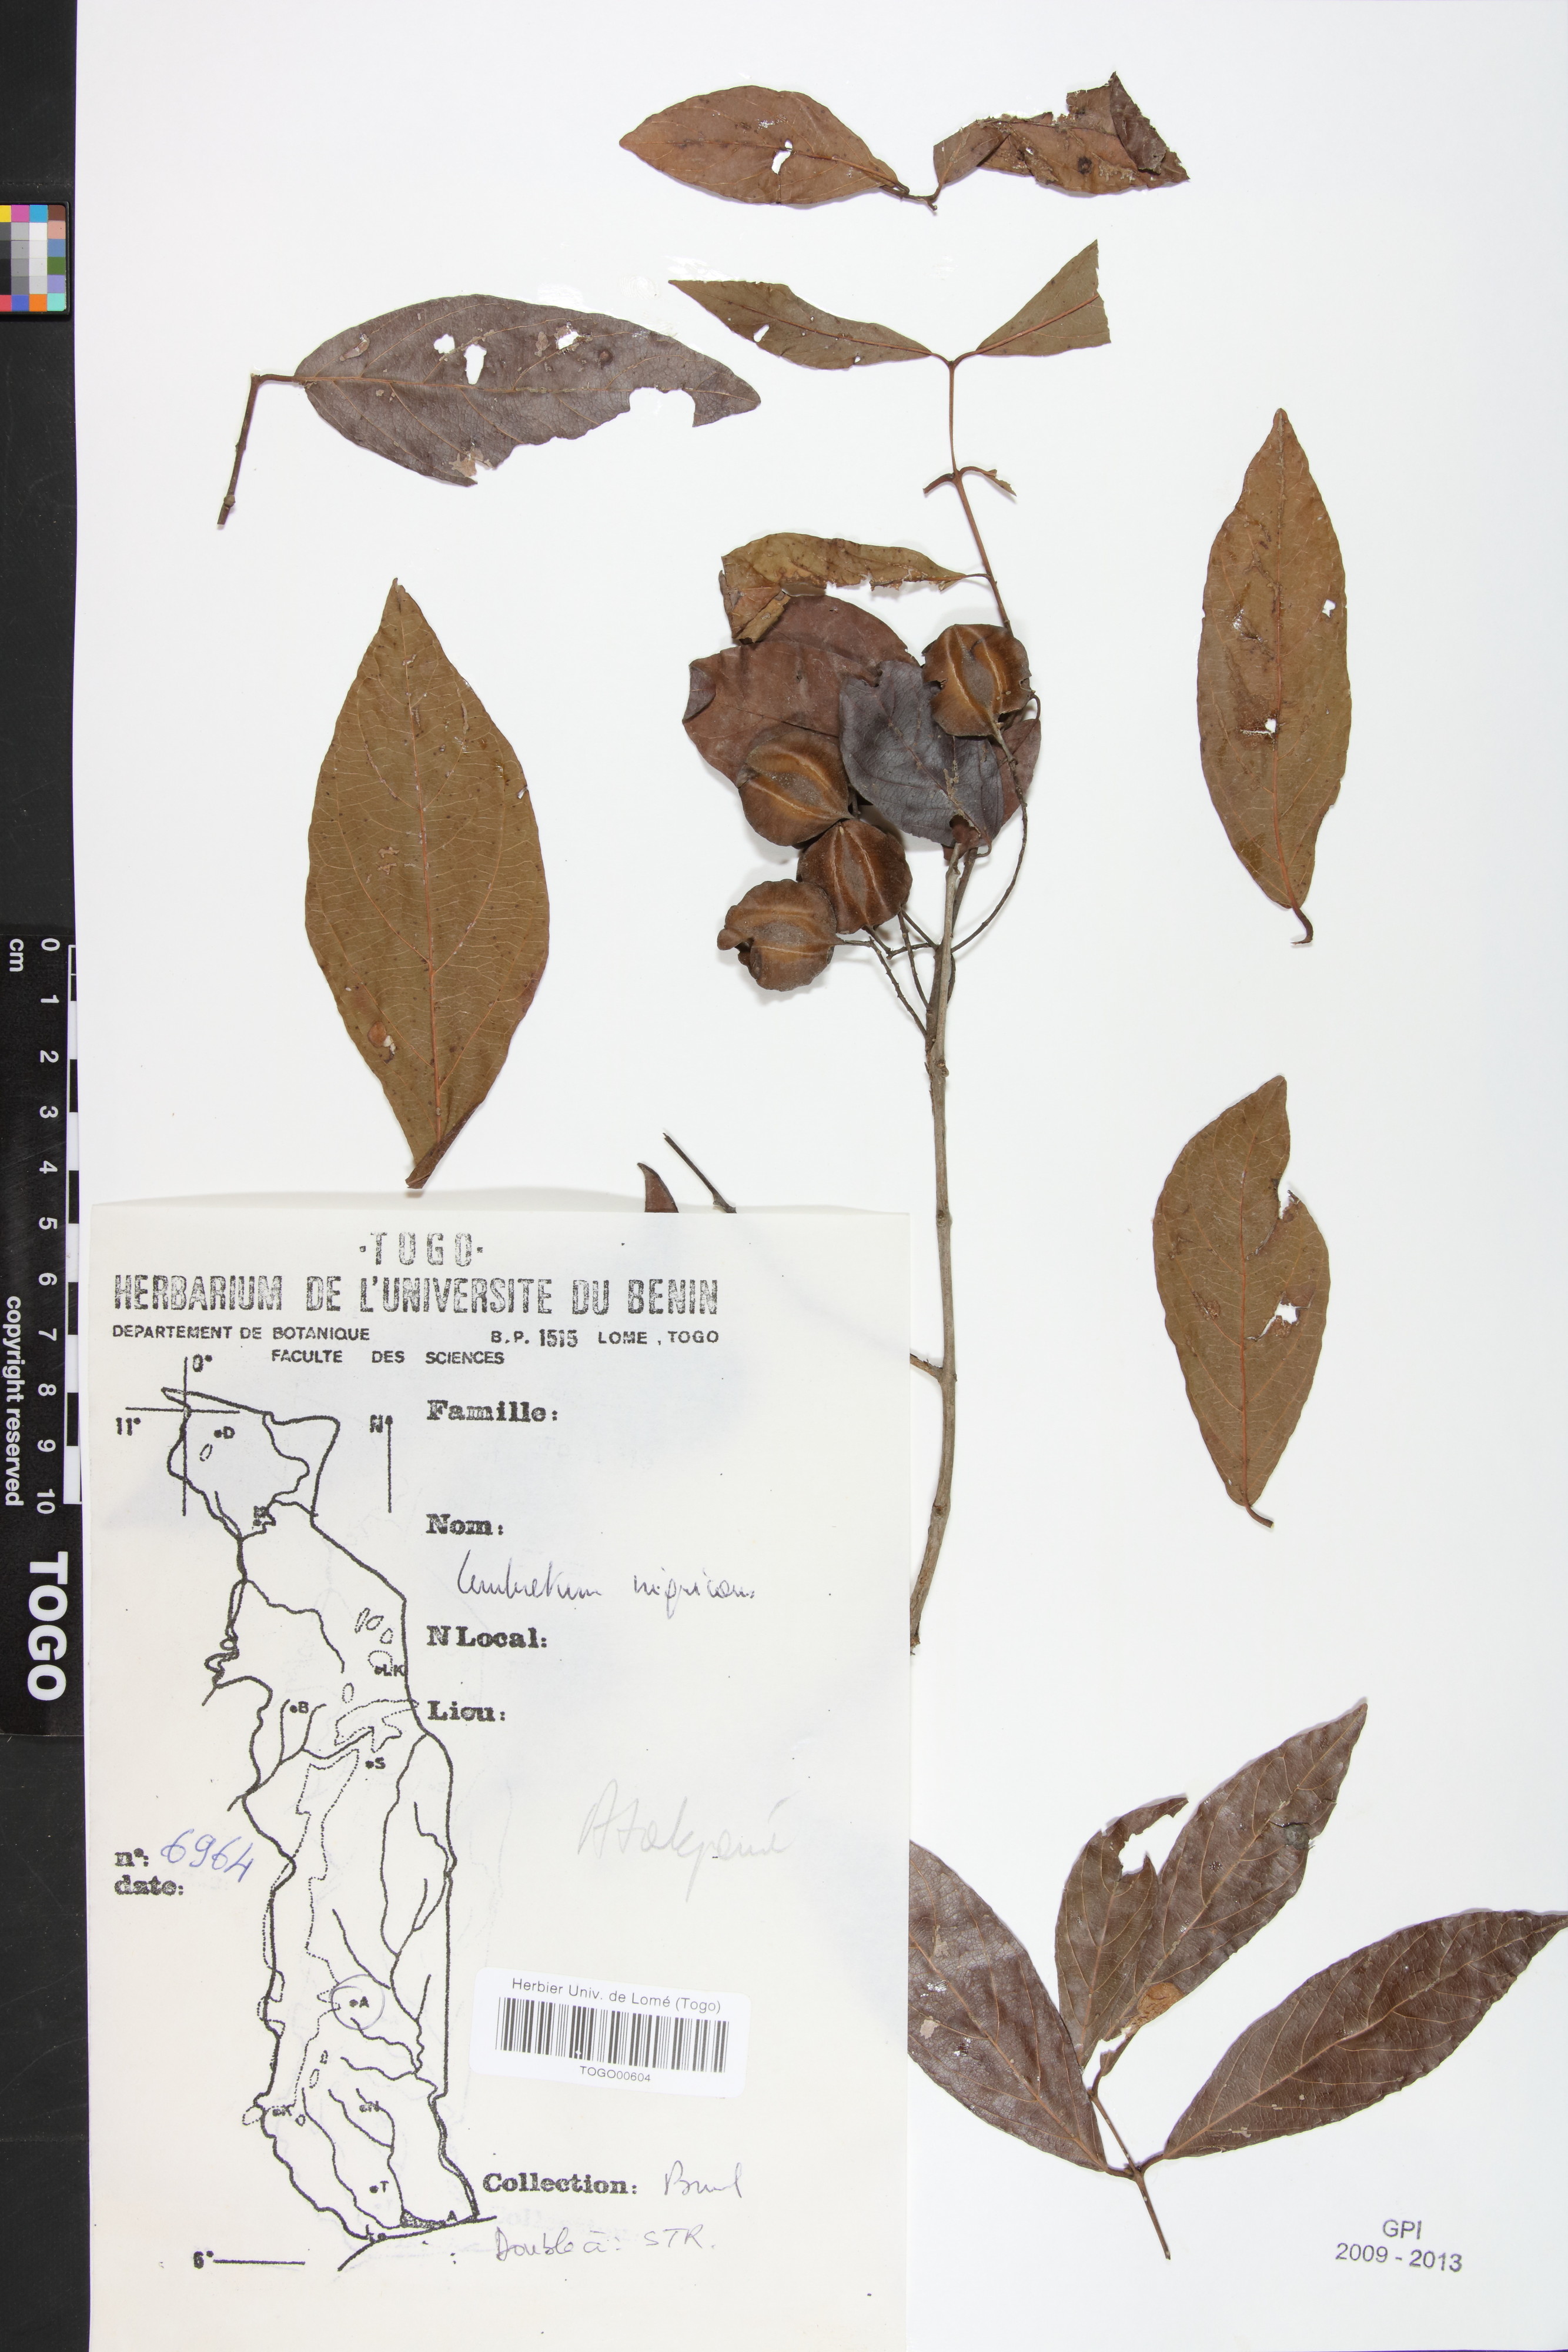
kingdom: Plantae
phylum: Tracheophyta
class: Magnoliopsida
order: Myrtales
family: Combretaceae
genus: Combretum
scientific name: Combretum nigricans
